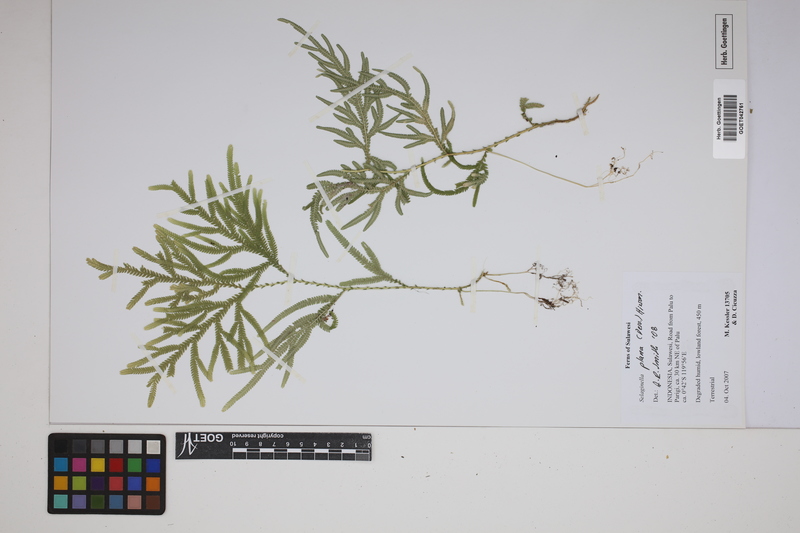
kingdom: Plantae
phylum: Tracheophyta
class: Lycopodiopsida
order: Selaginellales
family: Selaginellaceae
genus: Selaginella
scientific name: Selaginella plana
